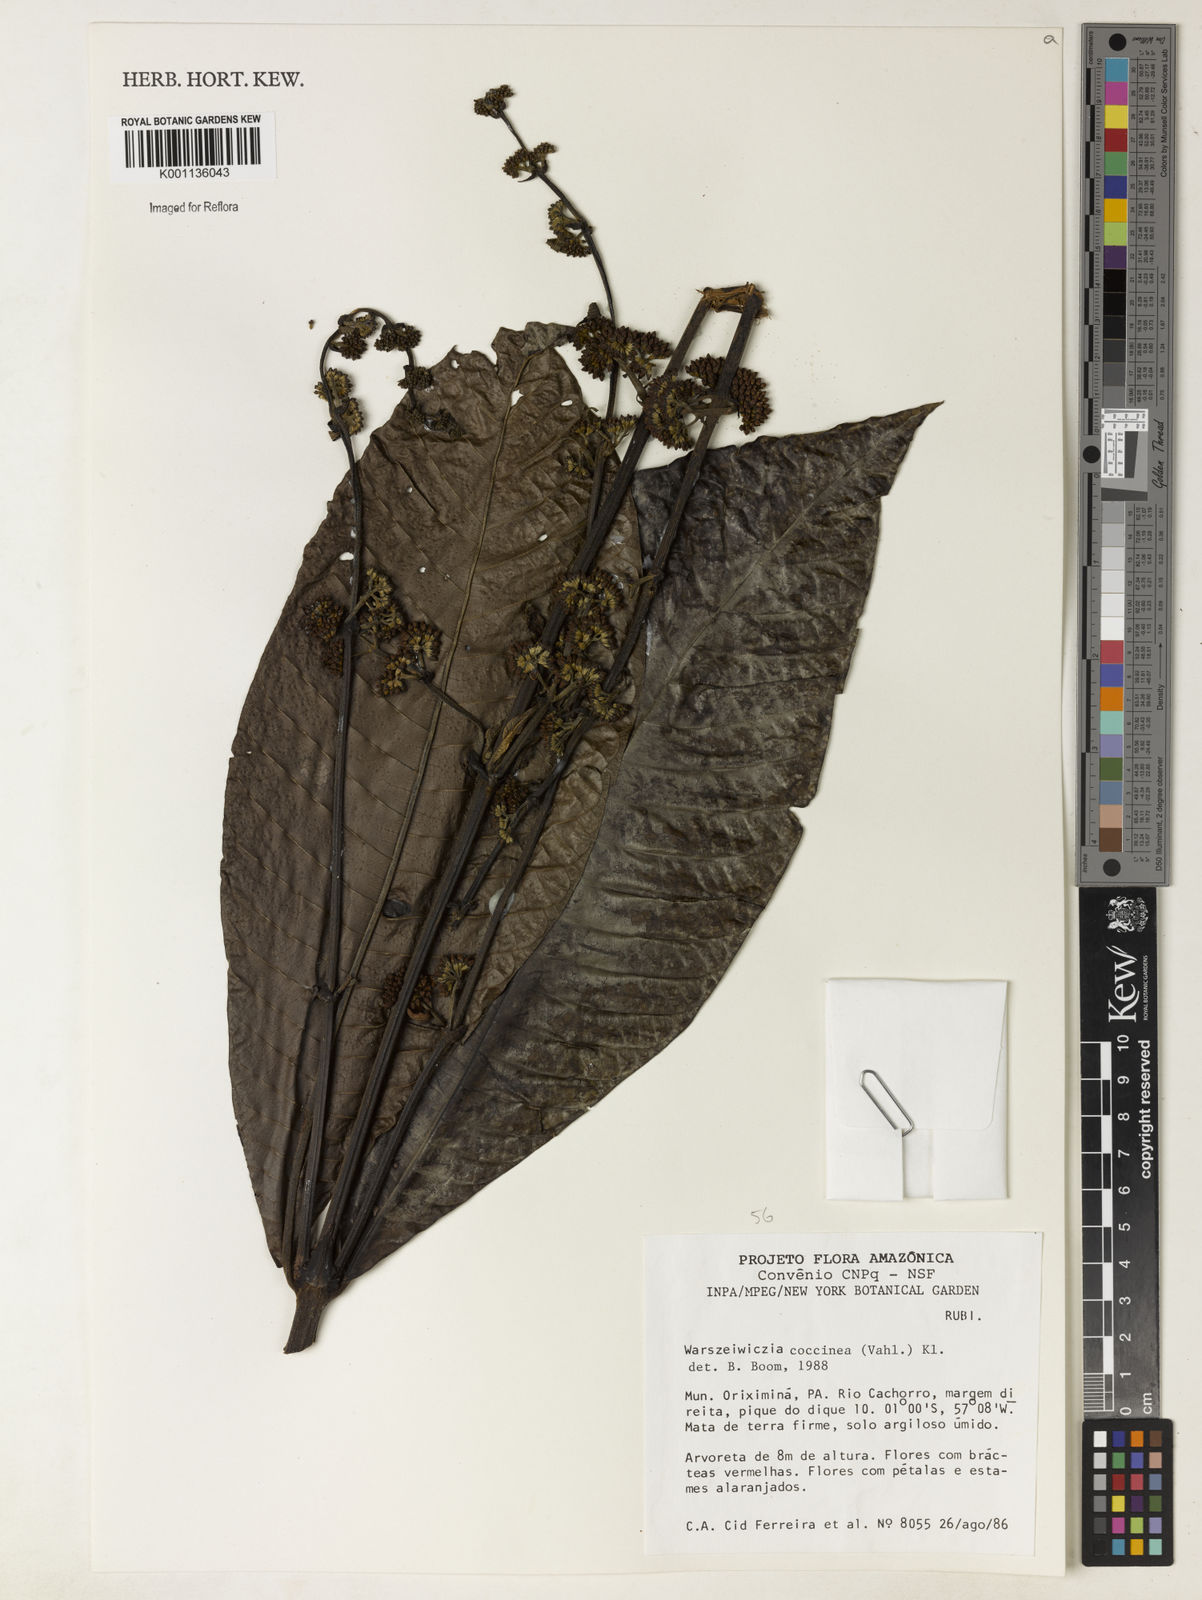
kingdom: Plantae
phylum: Tracheophyta
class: Magnoliopsida
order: Gentianales
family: Rubiaceae
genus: Warszewiczia
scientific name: Warszewiczia coccinea
